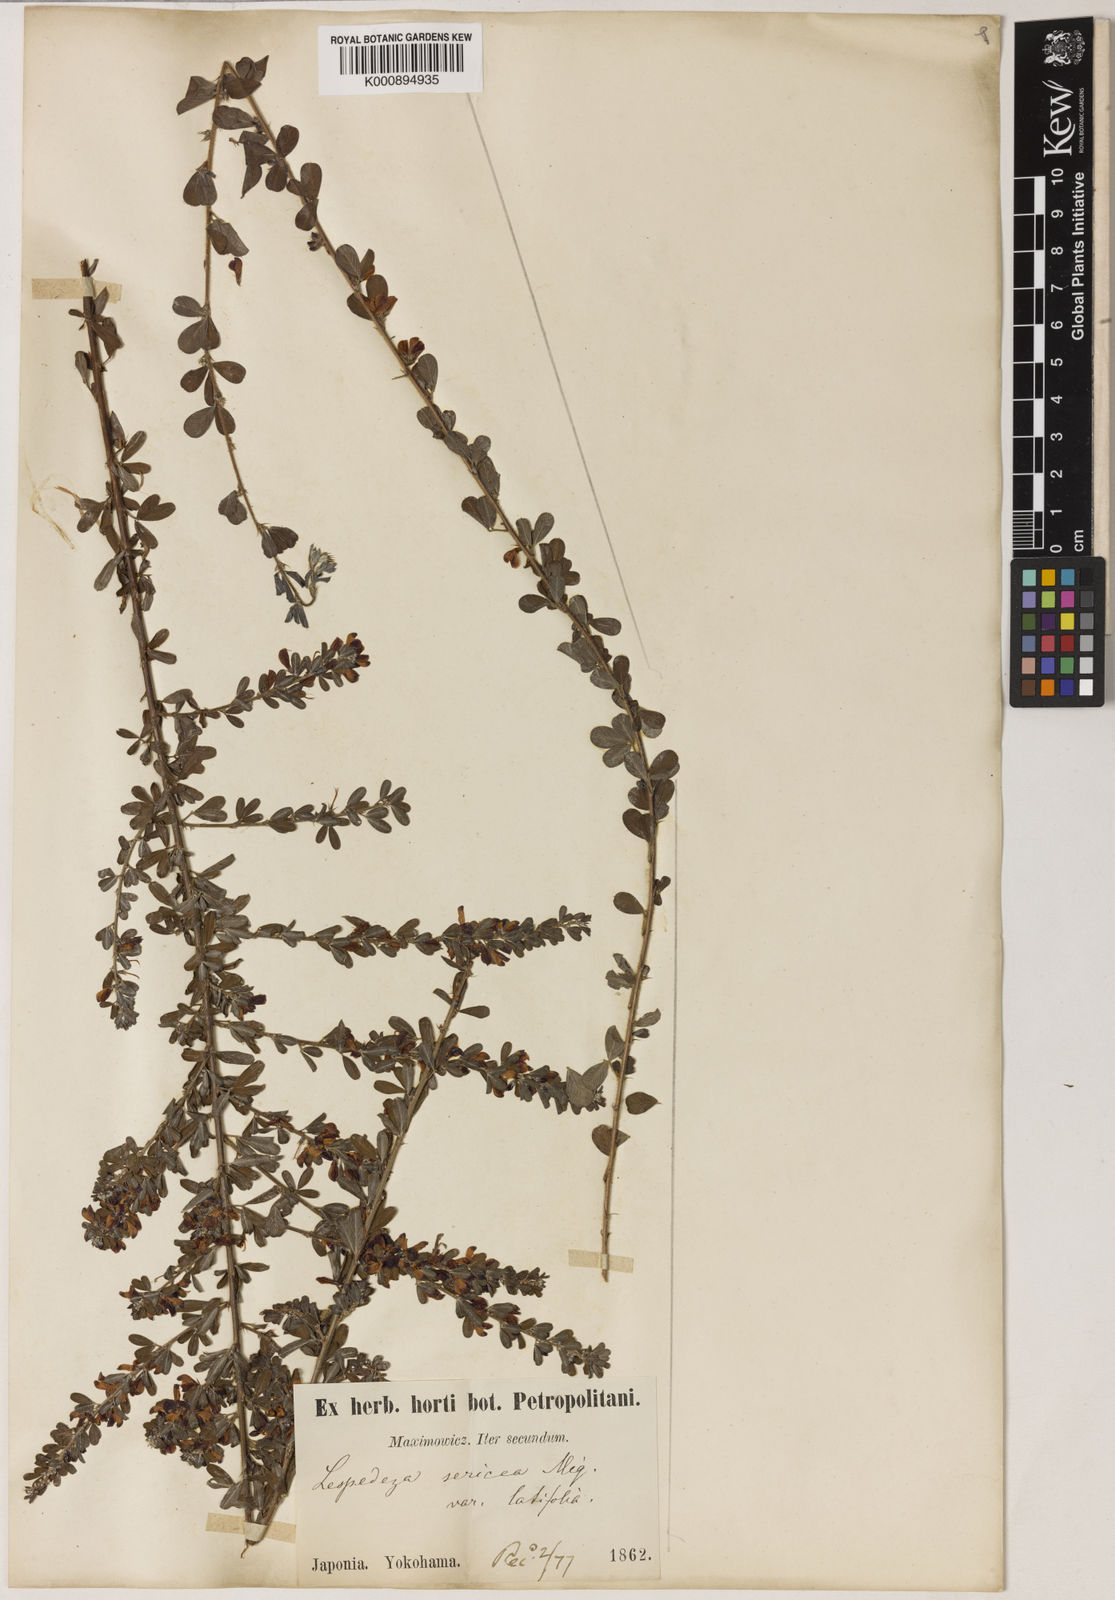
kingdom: Plantae
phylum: Tracheophyta
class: Magnoliopsida
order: Fabales
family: Fabaceae
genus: Campylotropis
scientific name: Campylotropis macrostyla
